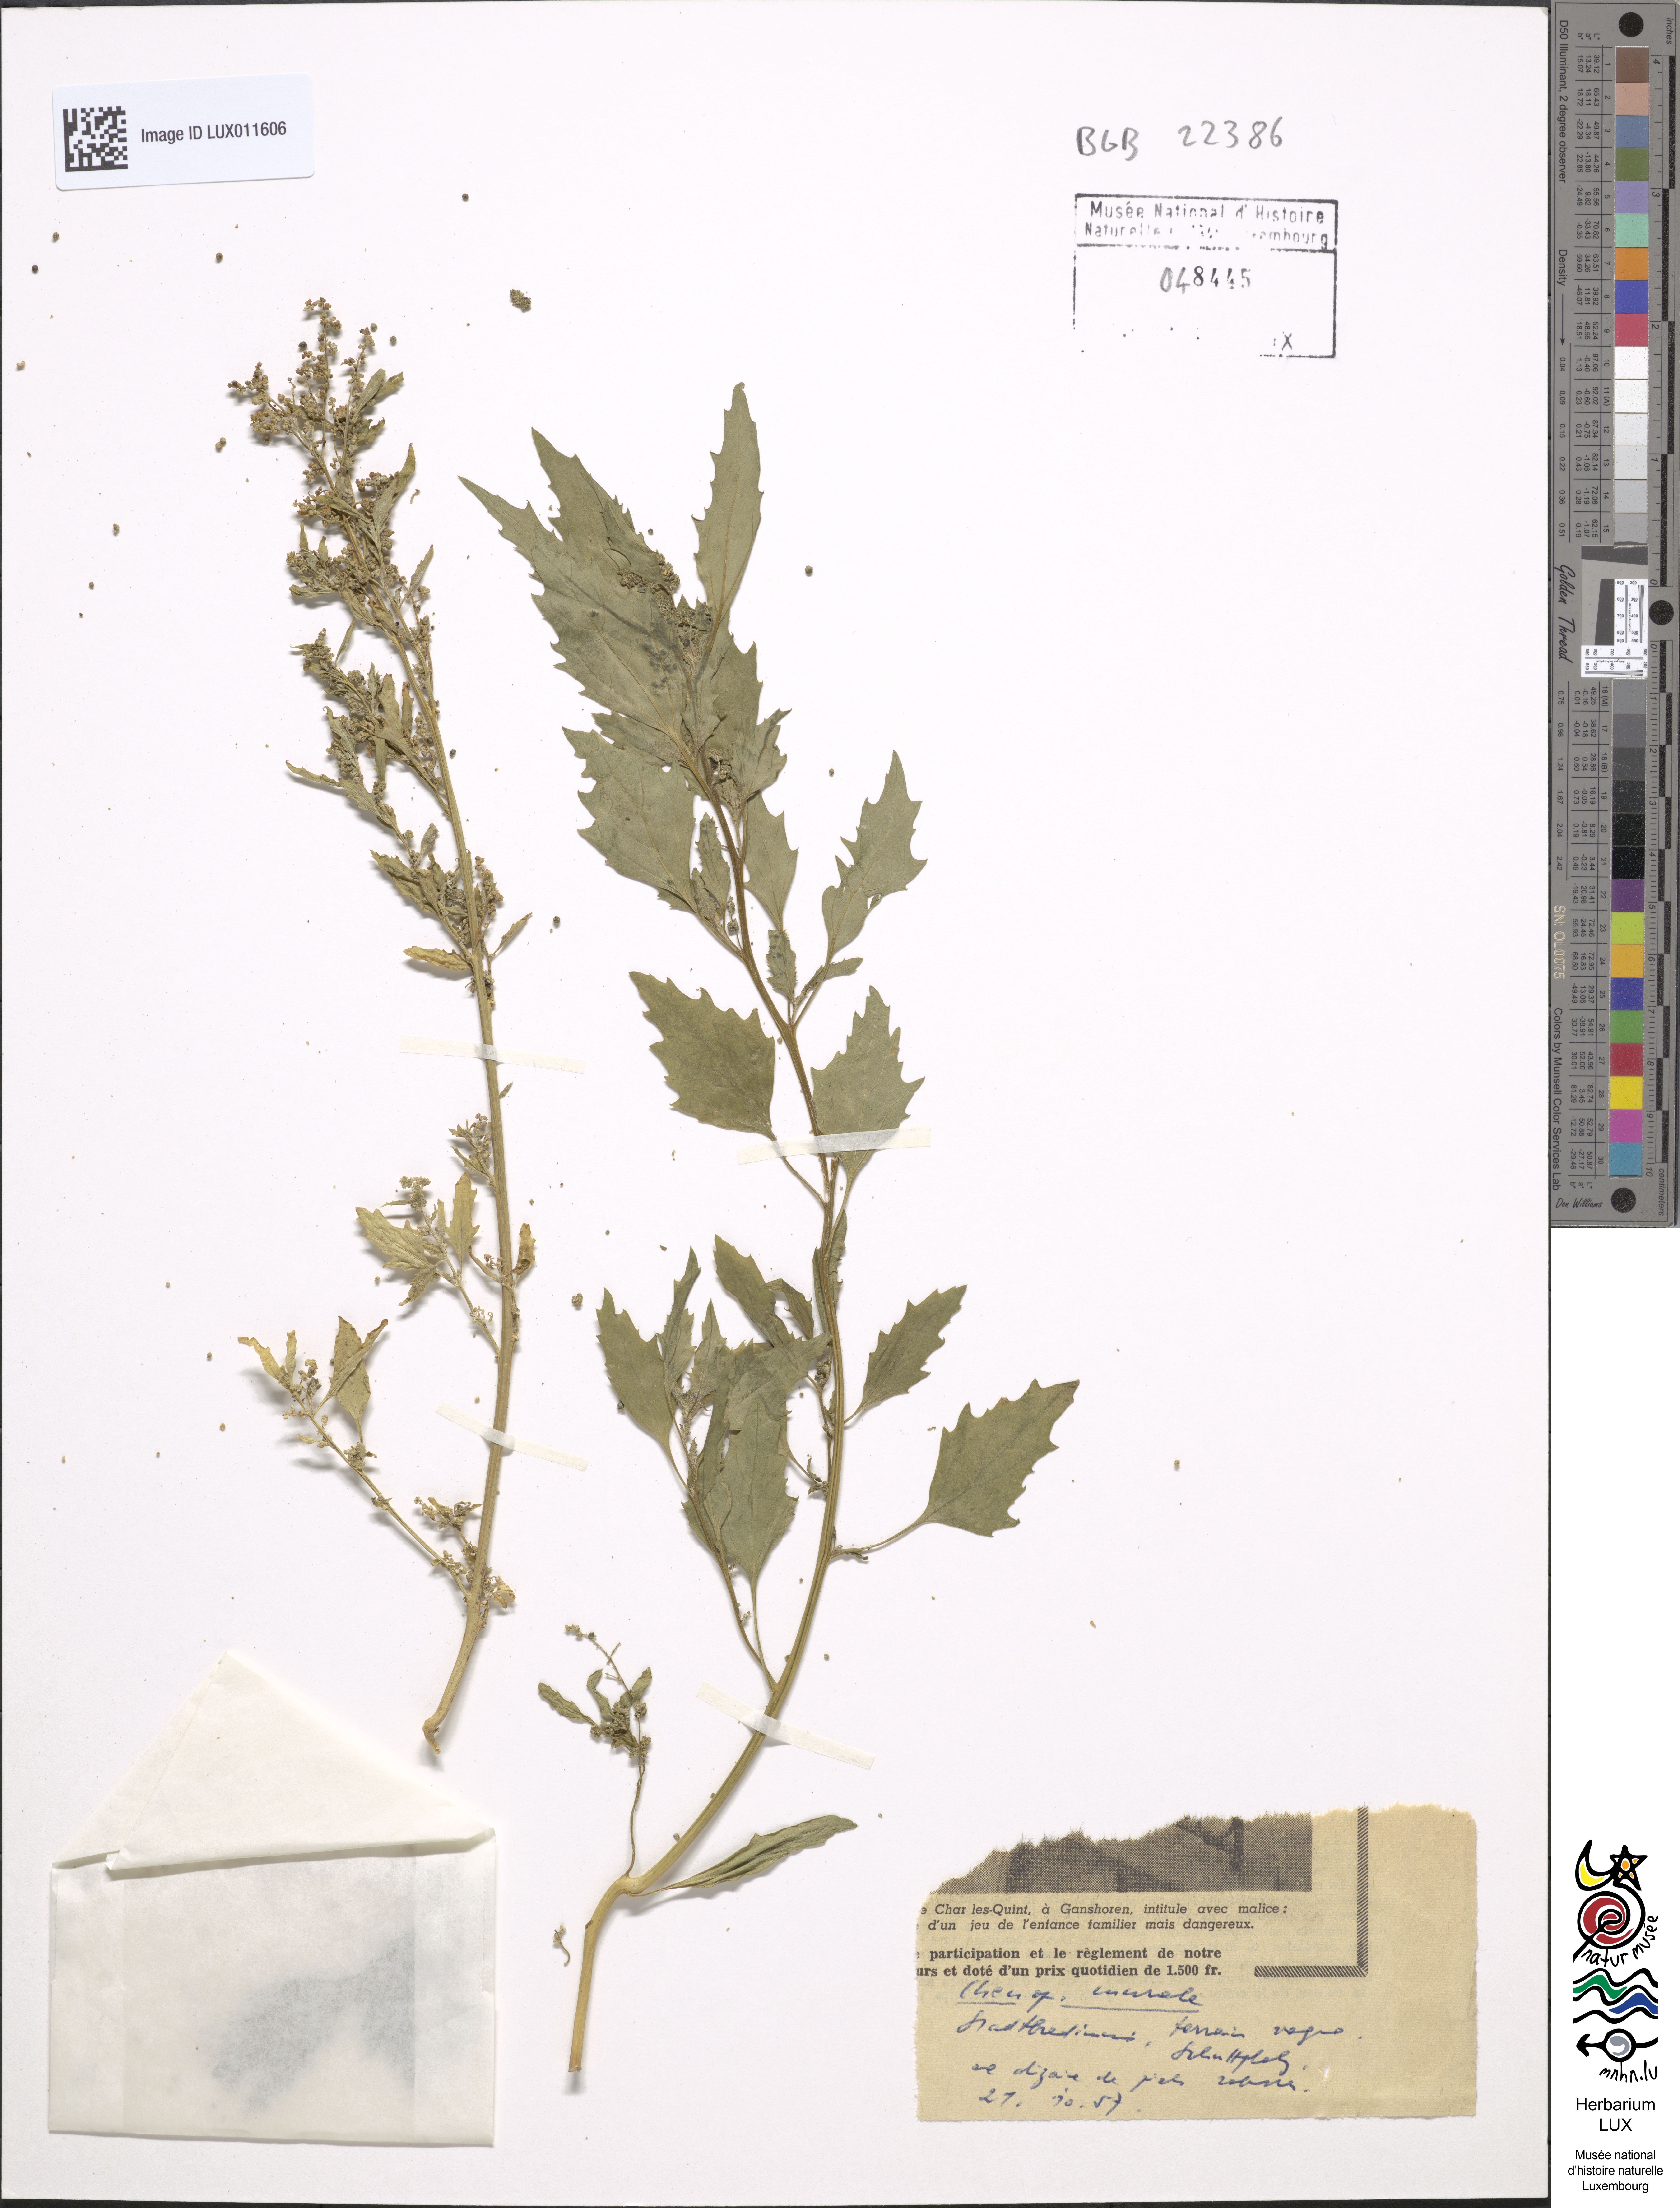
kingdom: Plantae
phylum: Tracheophyta
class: Magnoliopsida
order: Caryophyllales
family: Amaranthaceae
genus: Chenopodiastrum
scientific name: Chenopodiastrum murale
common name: Sowbane
